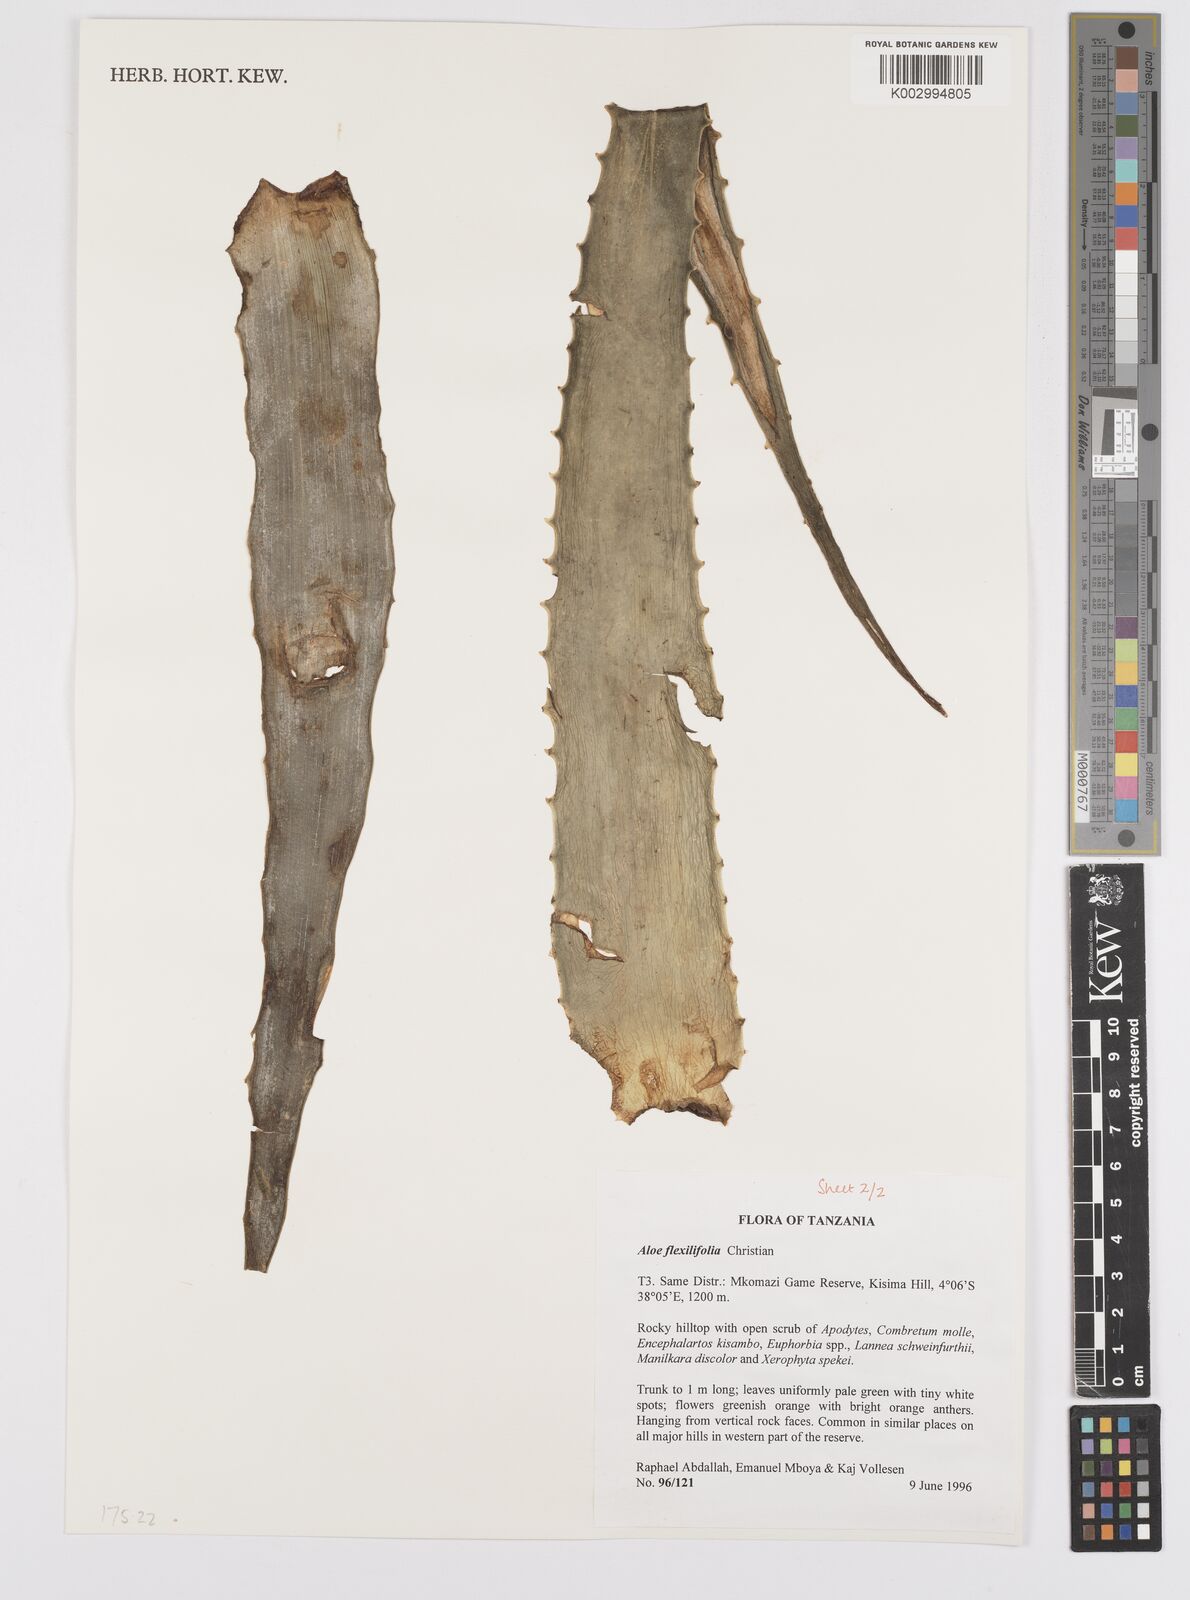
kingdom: Plantae
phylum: Tracheophyta
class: Liliopsida
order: Asparagales
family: Asphodelaceae
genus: Aloe
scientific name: Aloe flexilifolia
